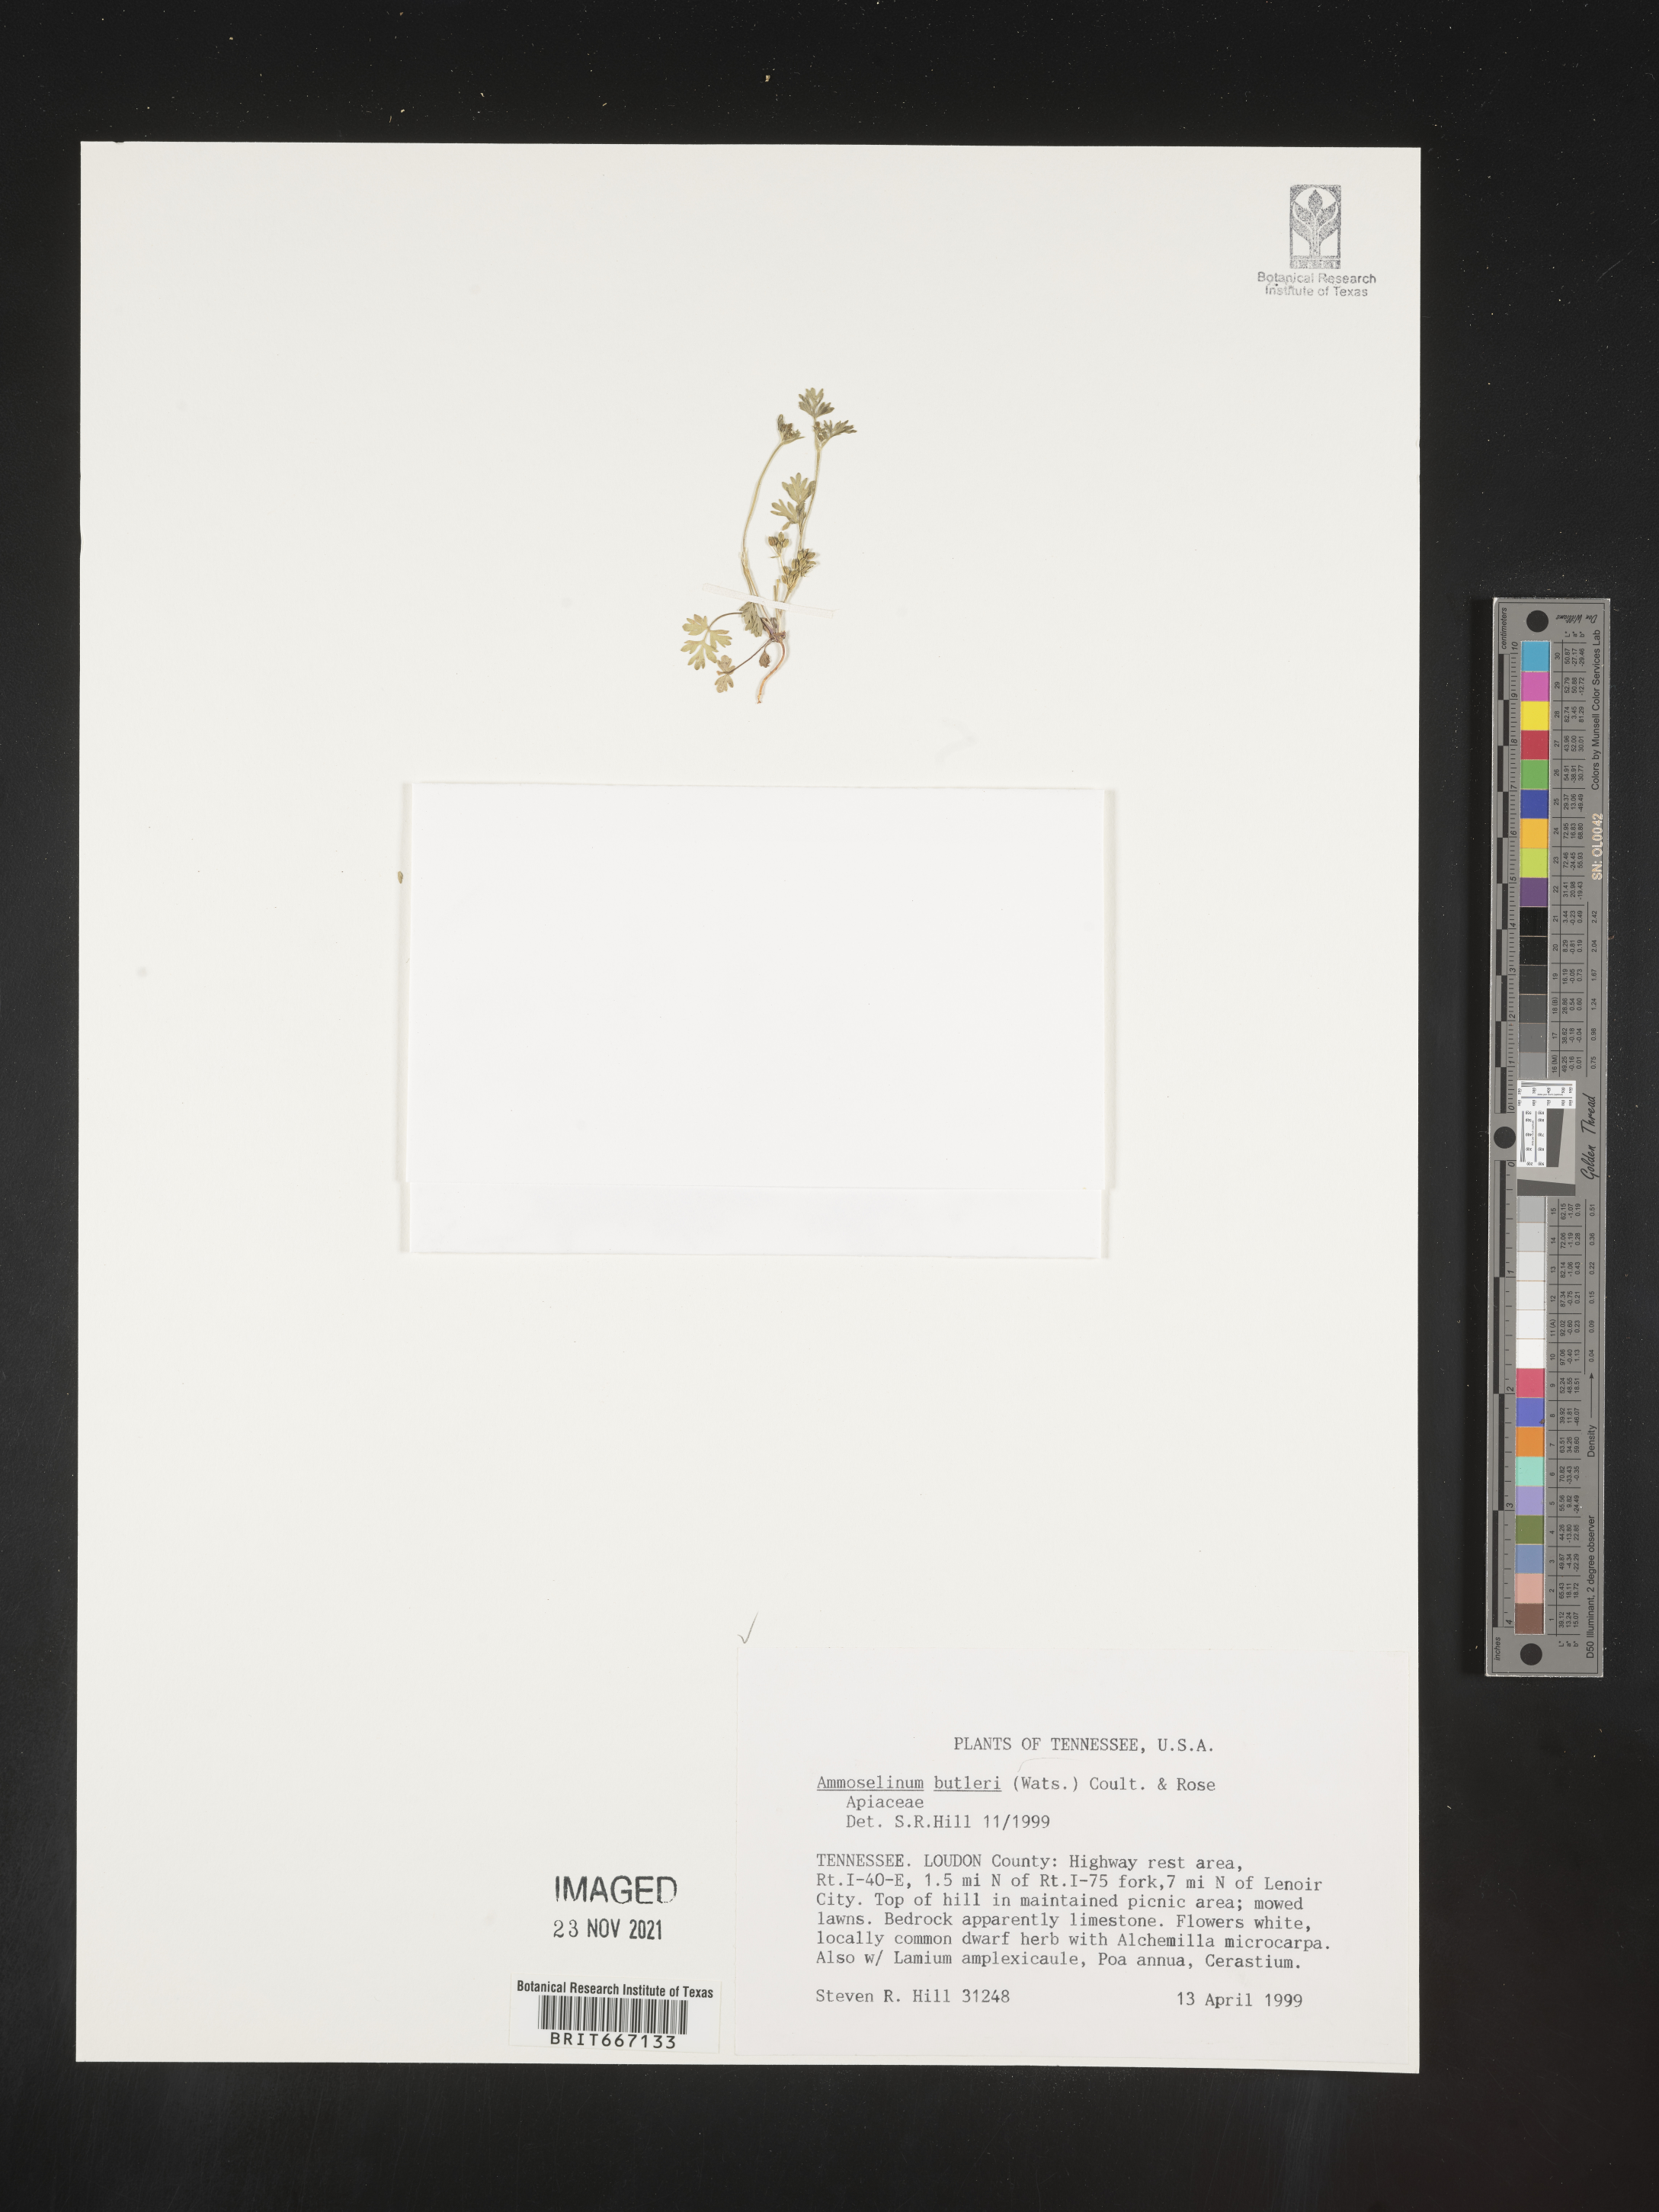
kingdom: Plantae
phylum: Tracheophyta
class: Magnoliopsida
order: Apiales
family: Apiaceae
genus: Ammoselinum
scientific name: Ammoselinum butleri
